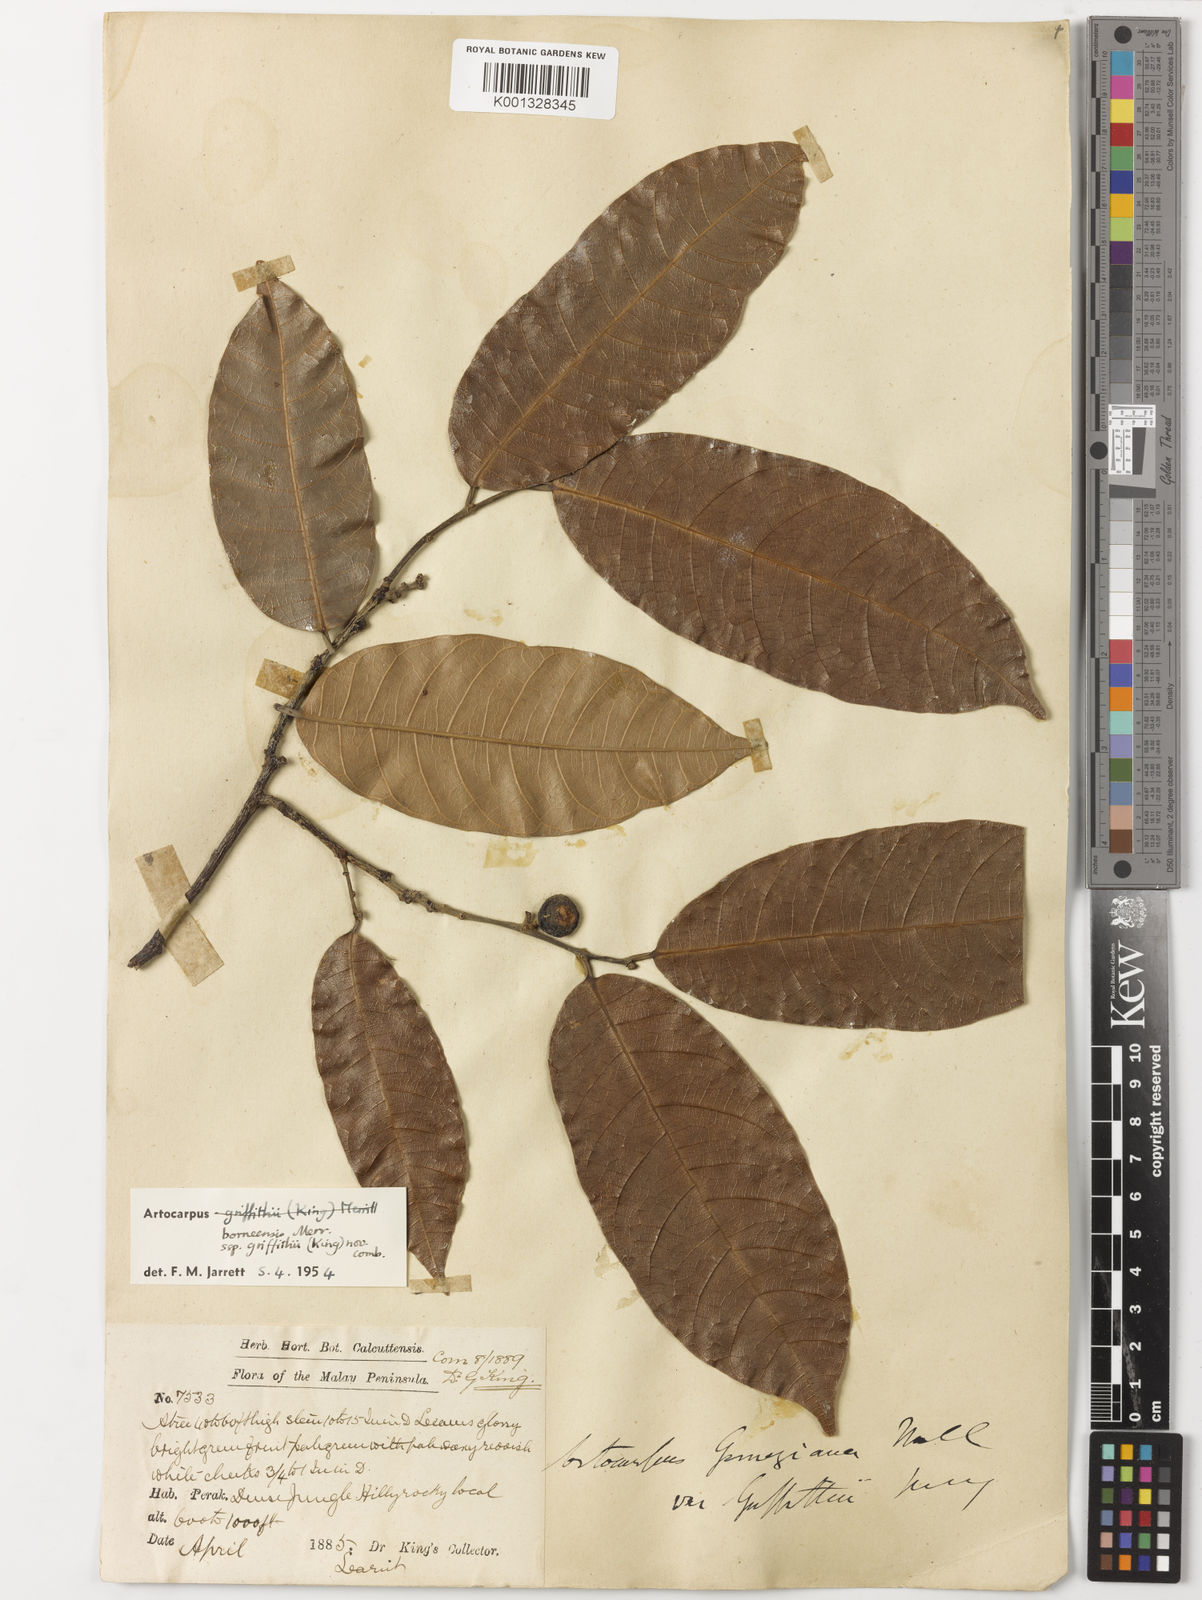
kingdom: Plantae
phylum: Tracheophyta
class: Magnoliopsida
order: Rosales
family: Moraceae
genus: Artocarpus
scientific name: Artocarpus lamellosus
